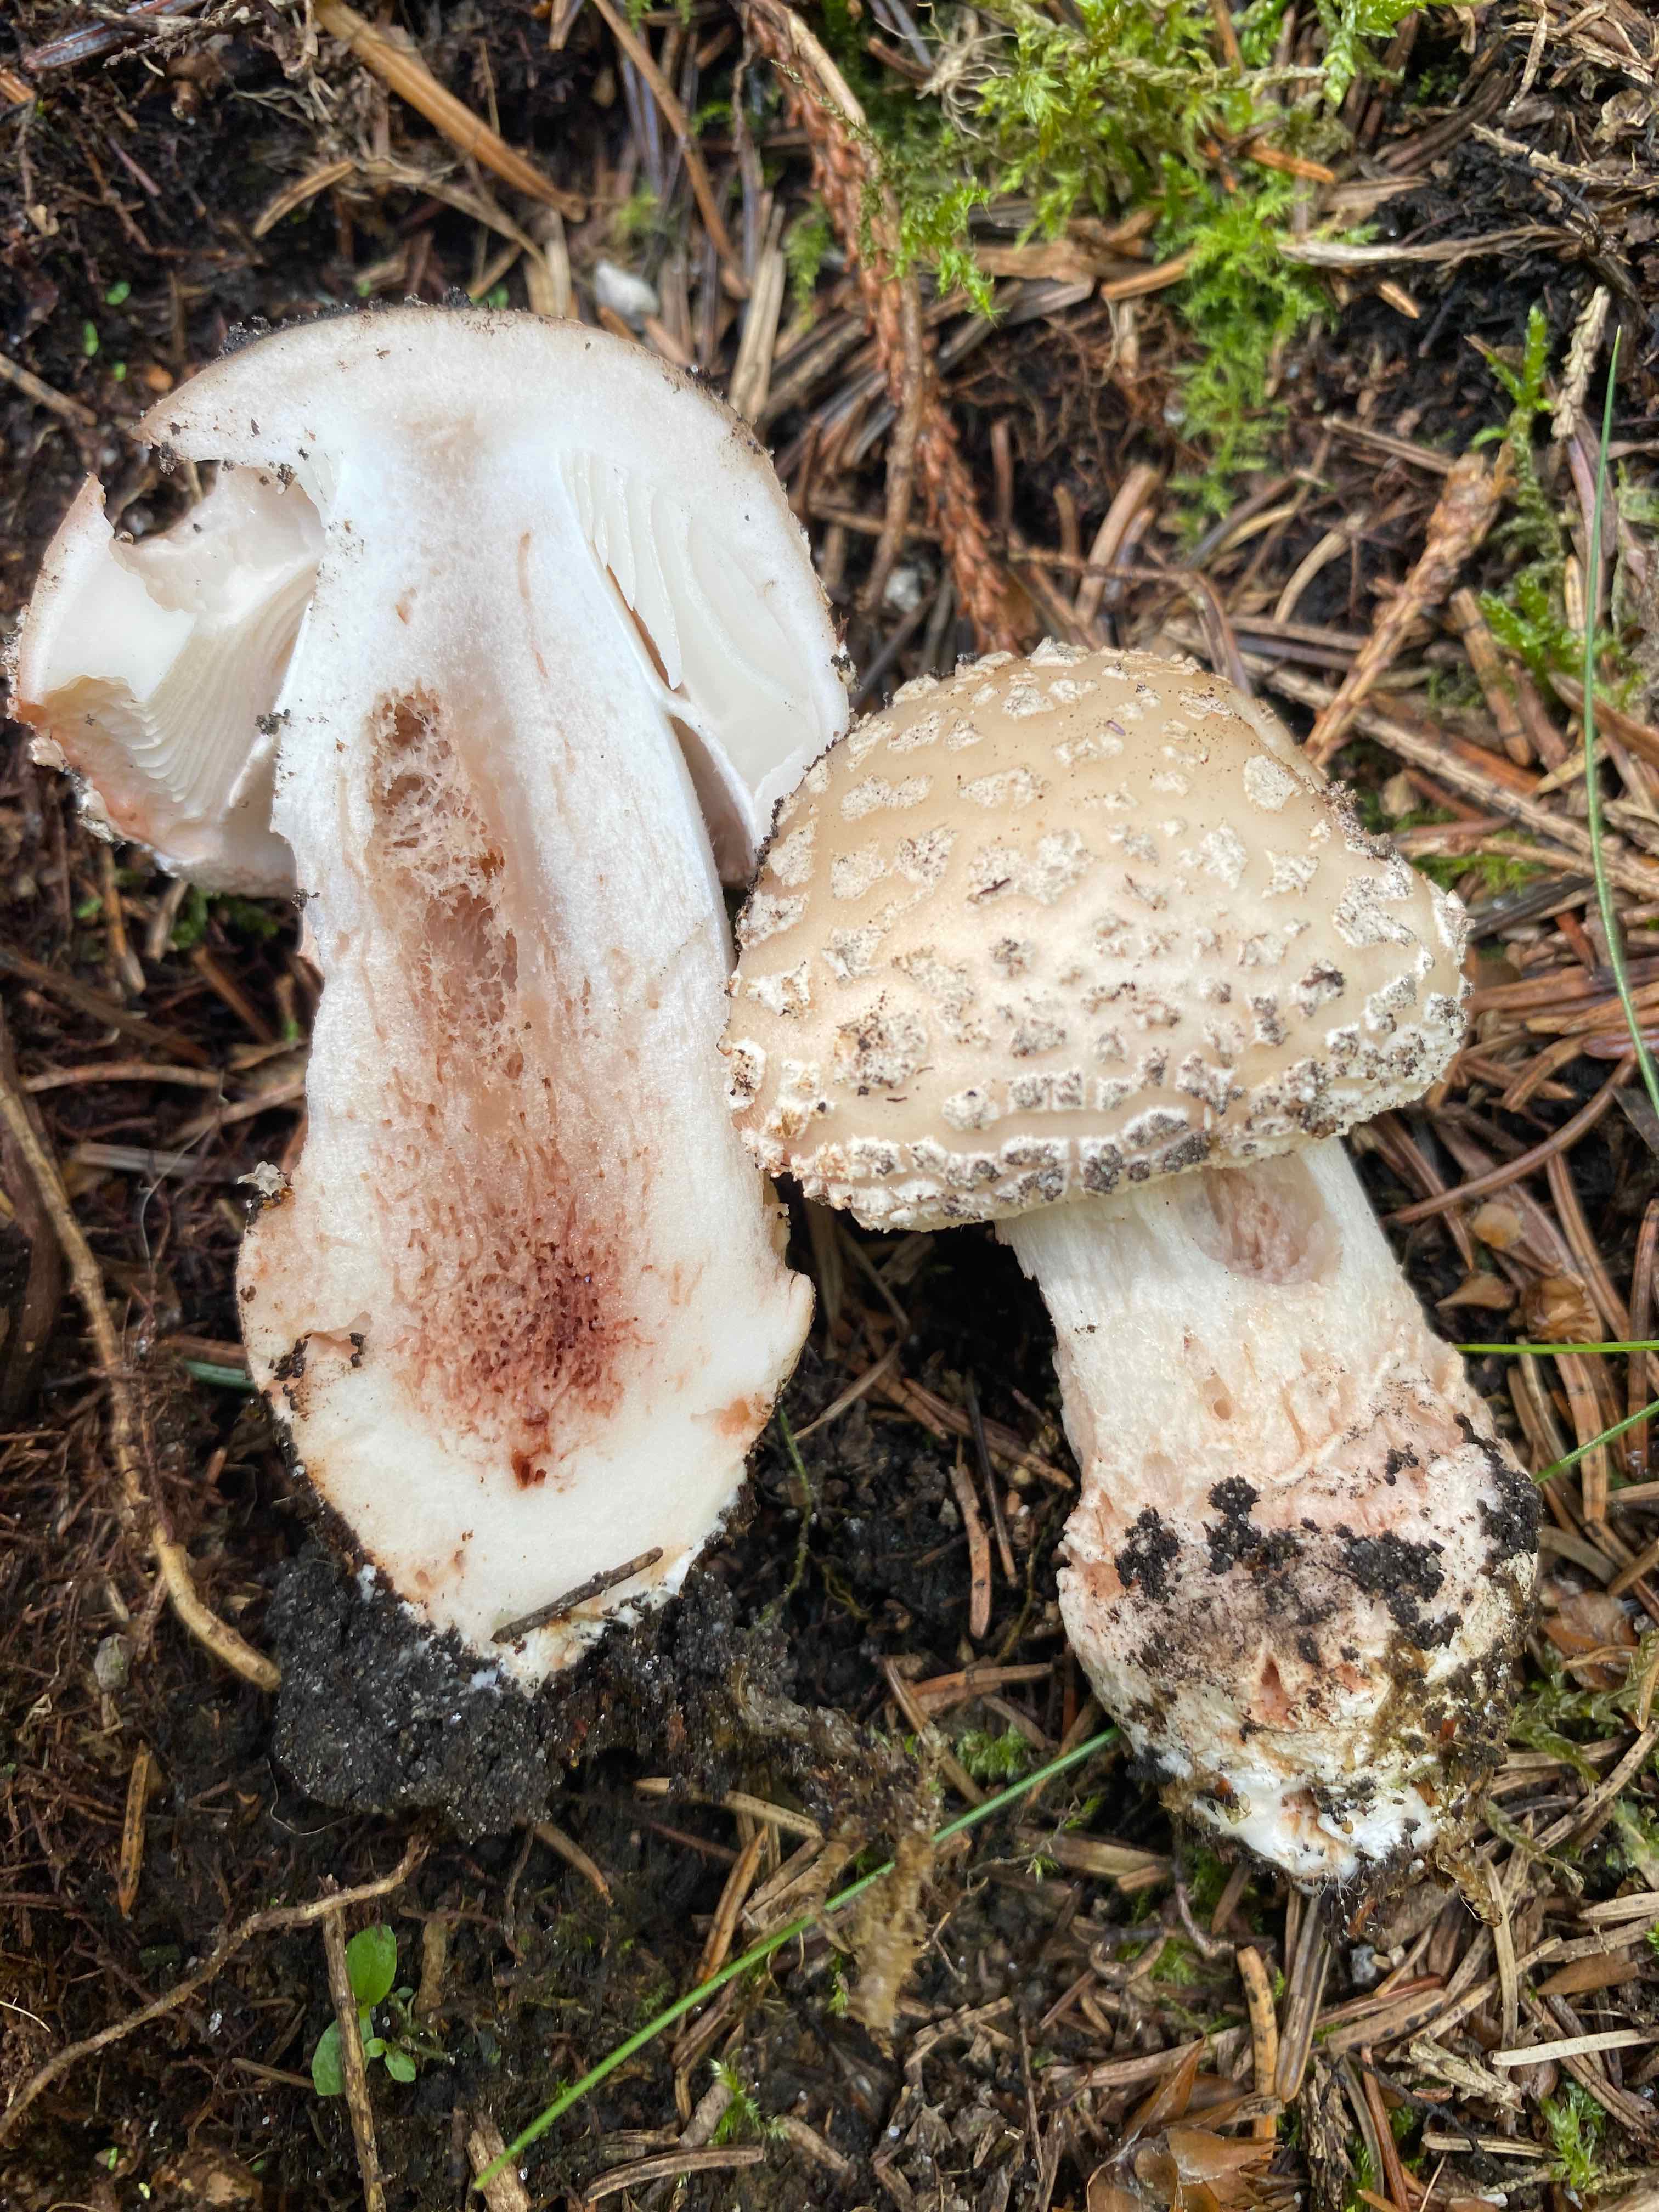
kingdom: Fungi
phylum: Basidiomycota
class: Agaricomycetes
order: Agaricales
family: Amanitaceae
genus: Amanita
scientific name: Amanita rubescens
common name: rødmende fluesvamp
